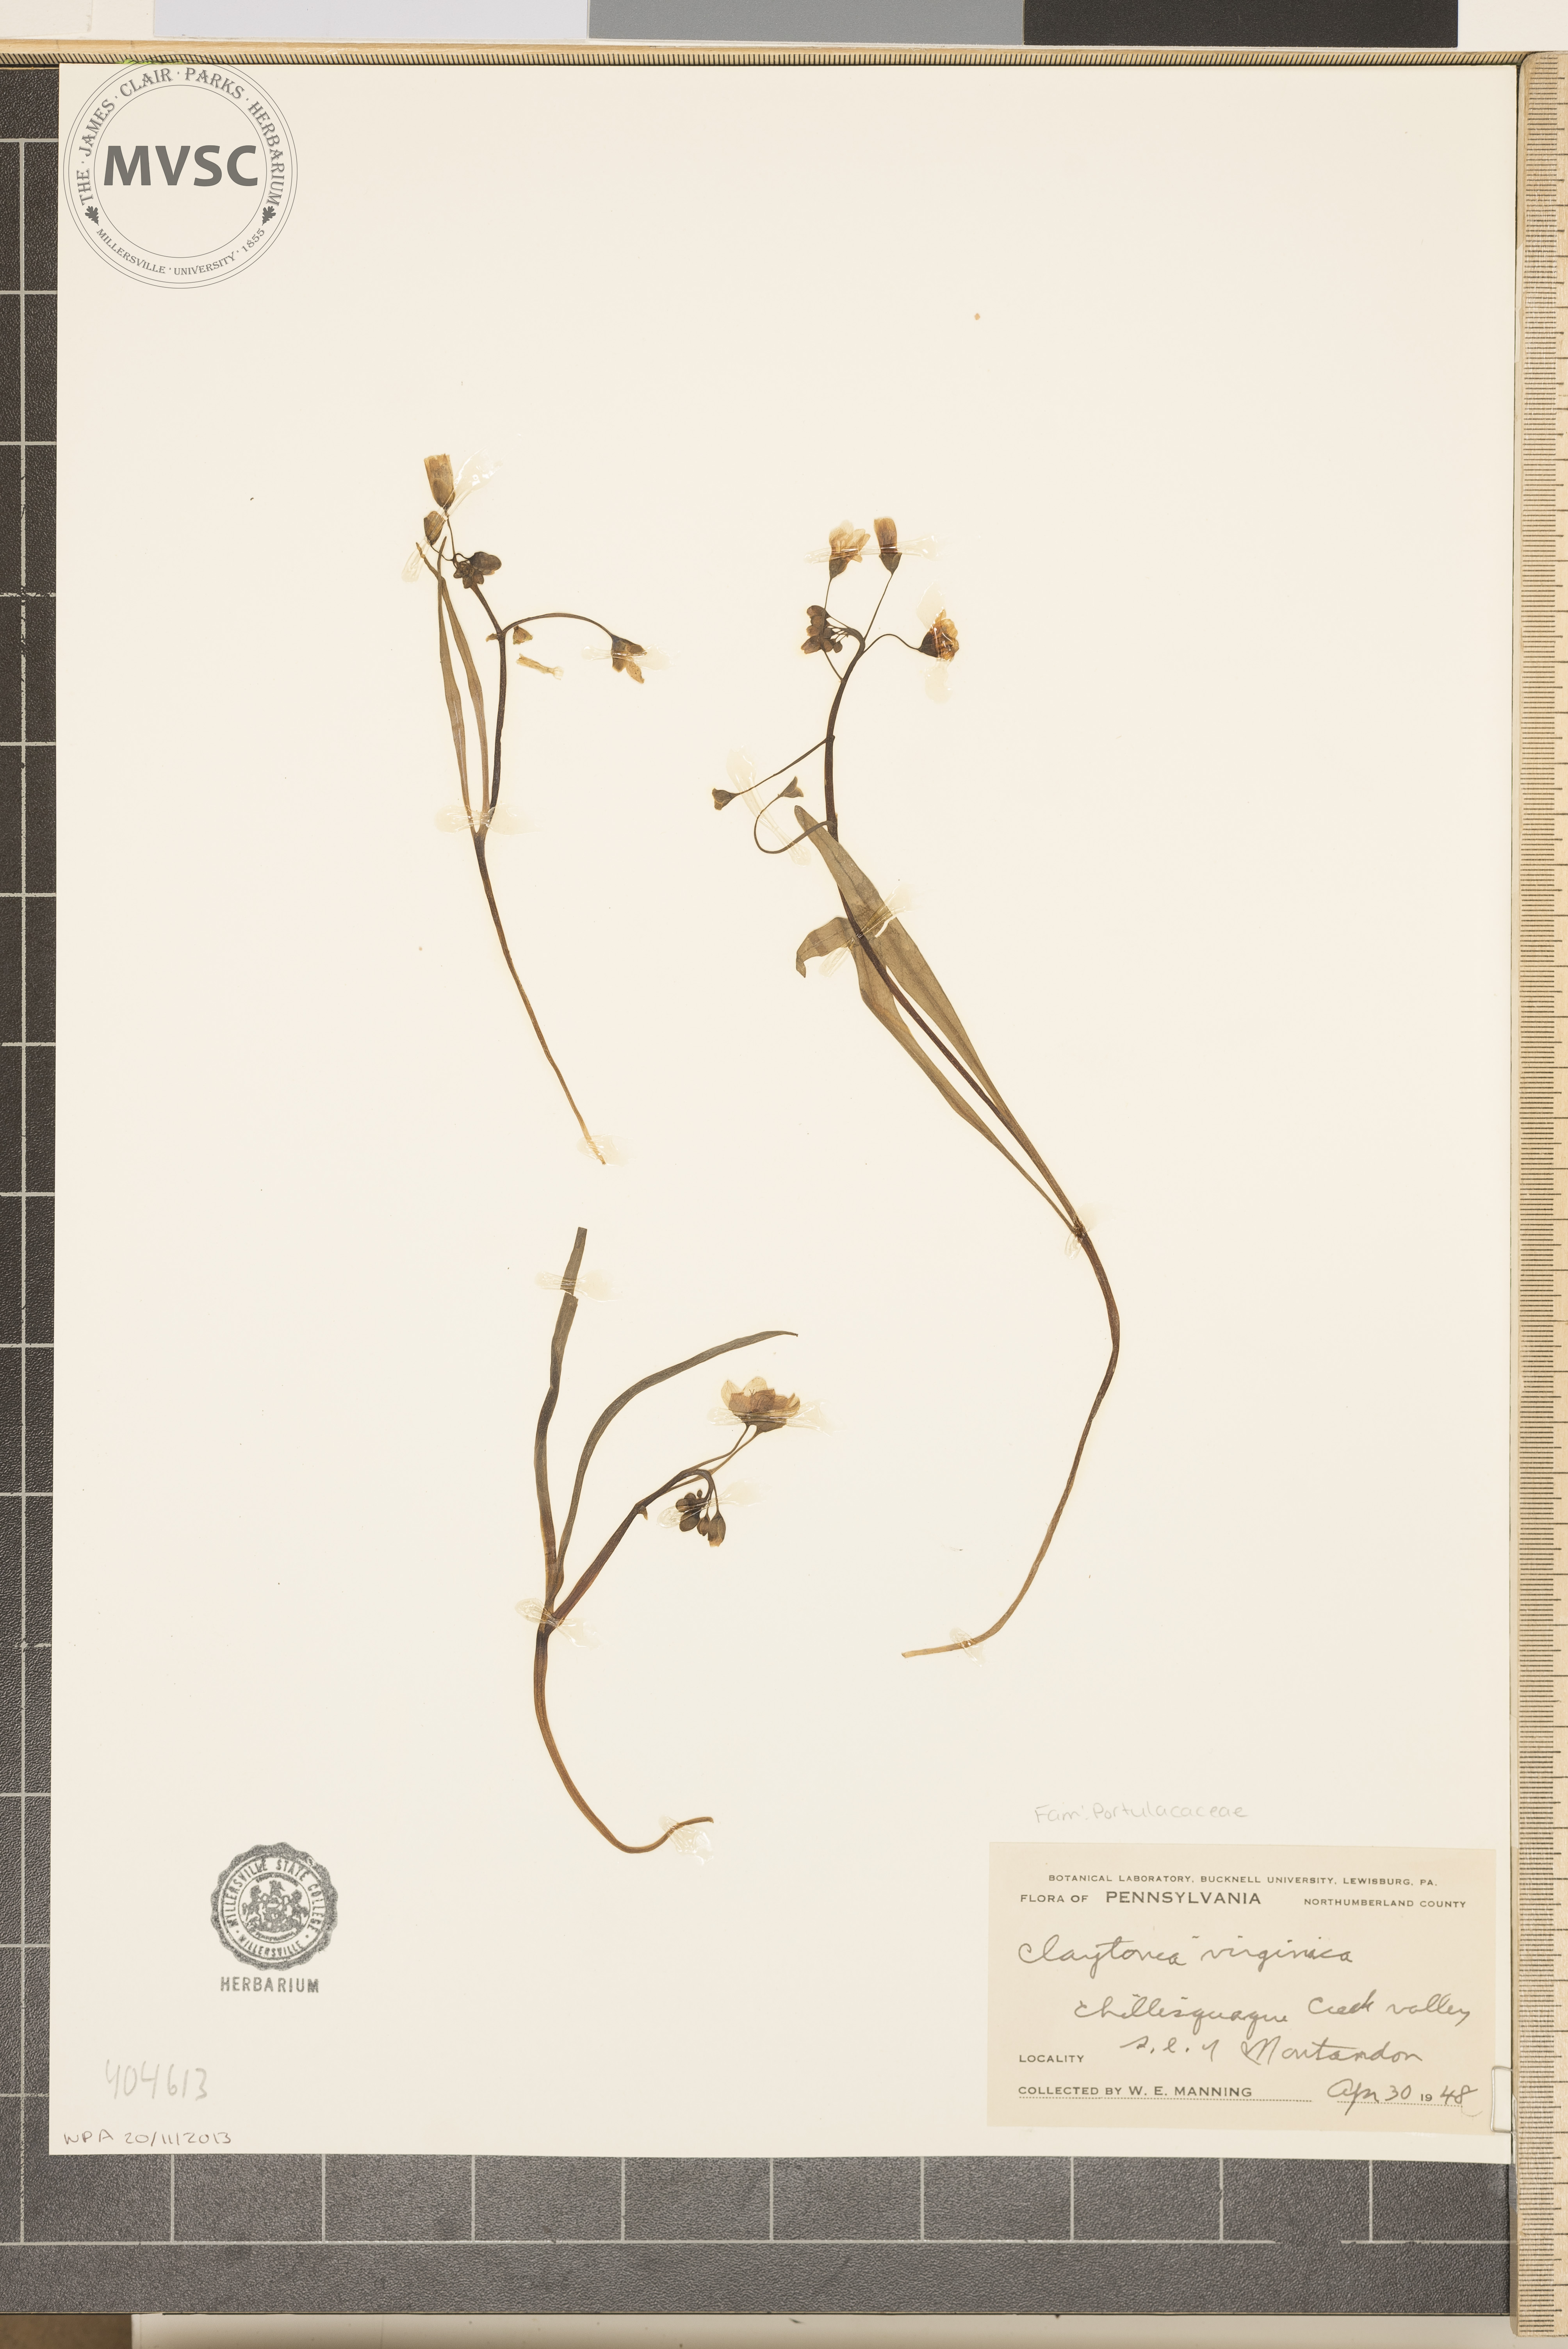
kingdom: Plantae
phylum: Tracheophyta
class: Magnoliopsida
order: Caryophyllales
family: Montiaceae
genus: Claytonia
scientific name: Claytonia virginica
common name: Virginia springbeauty
